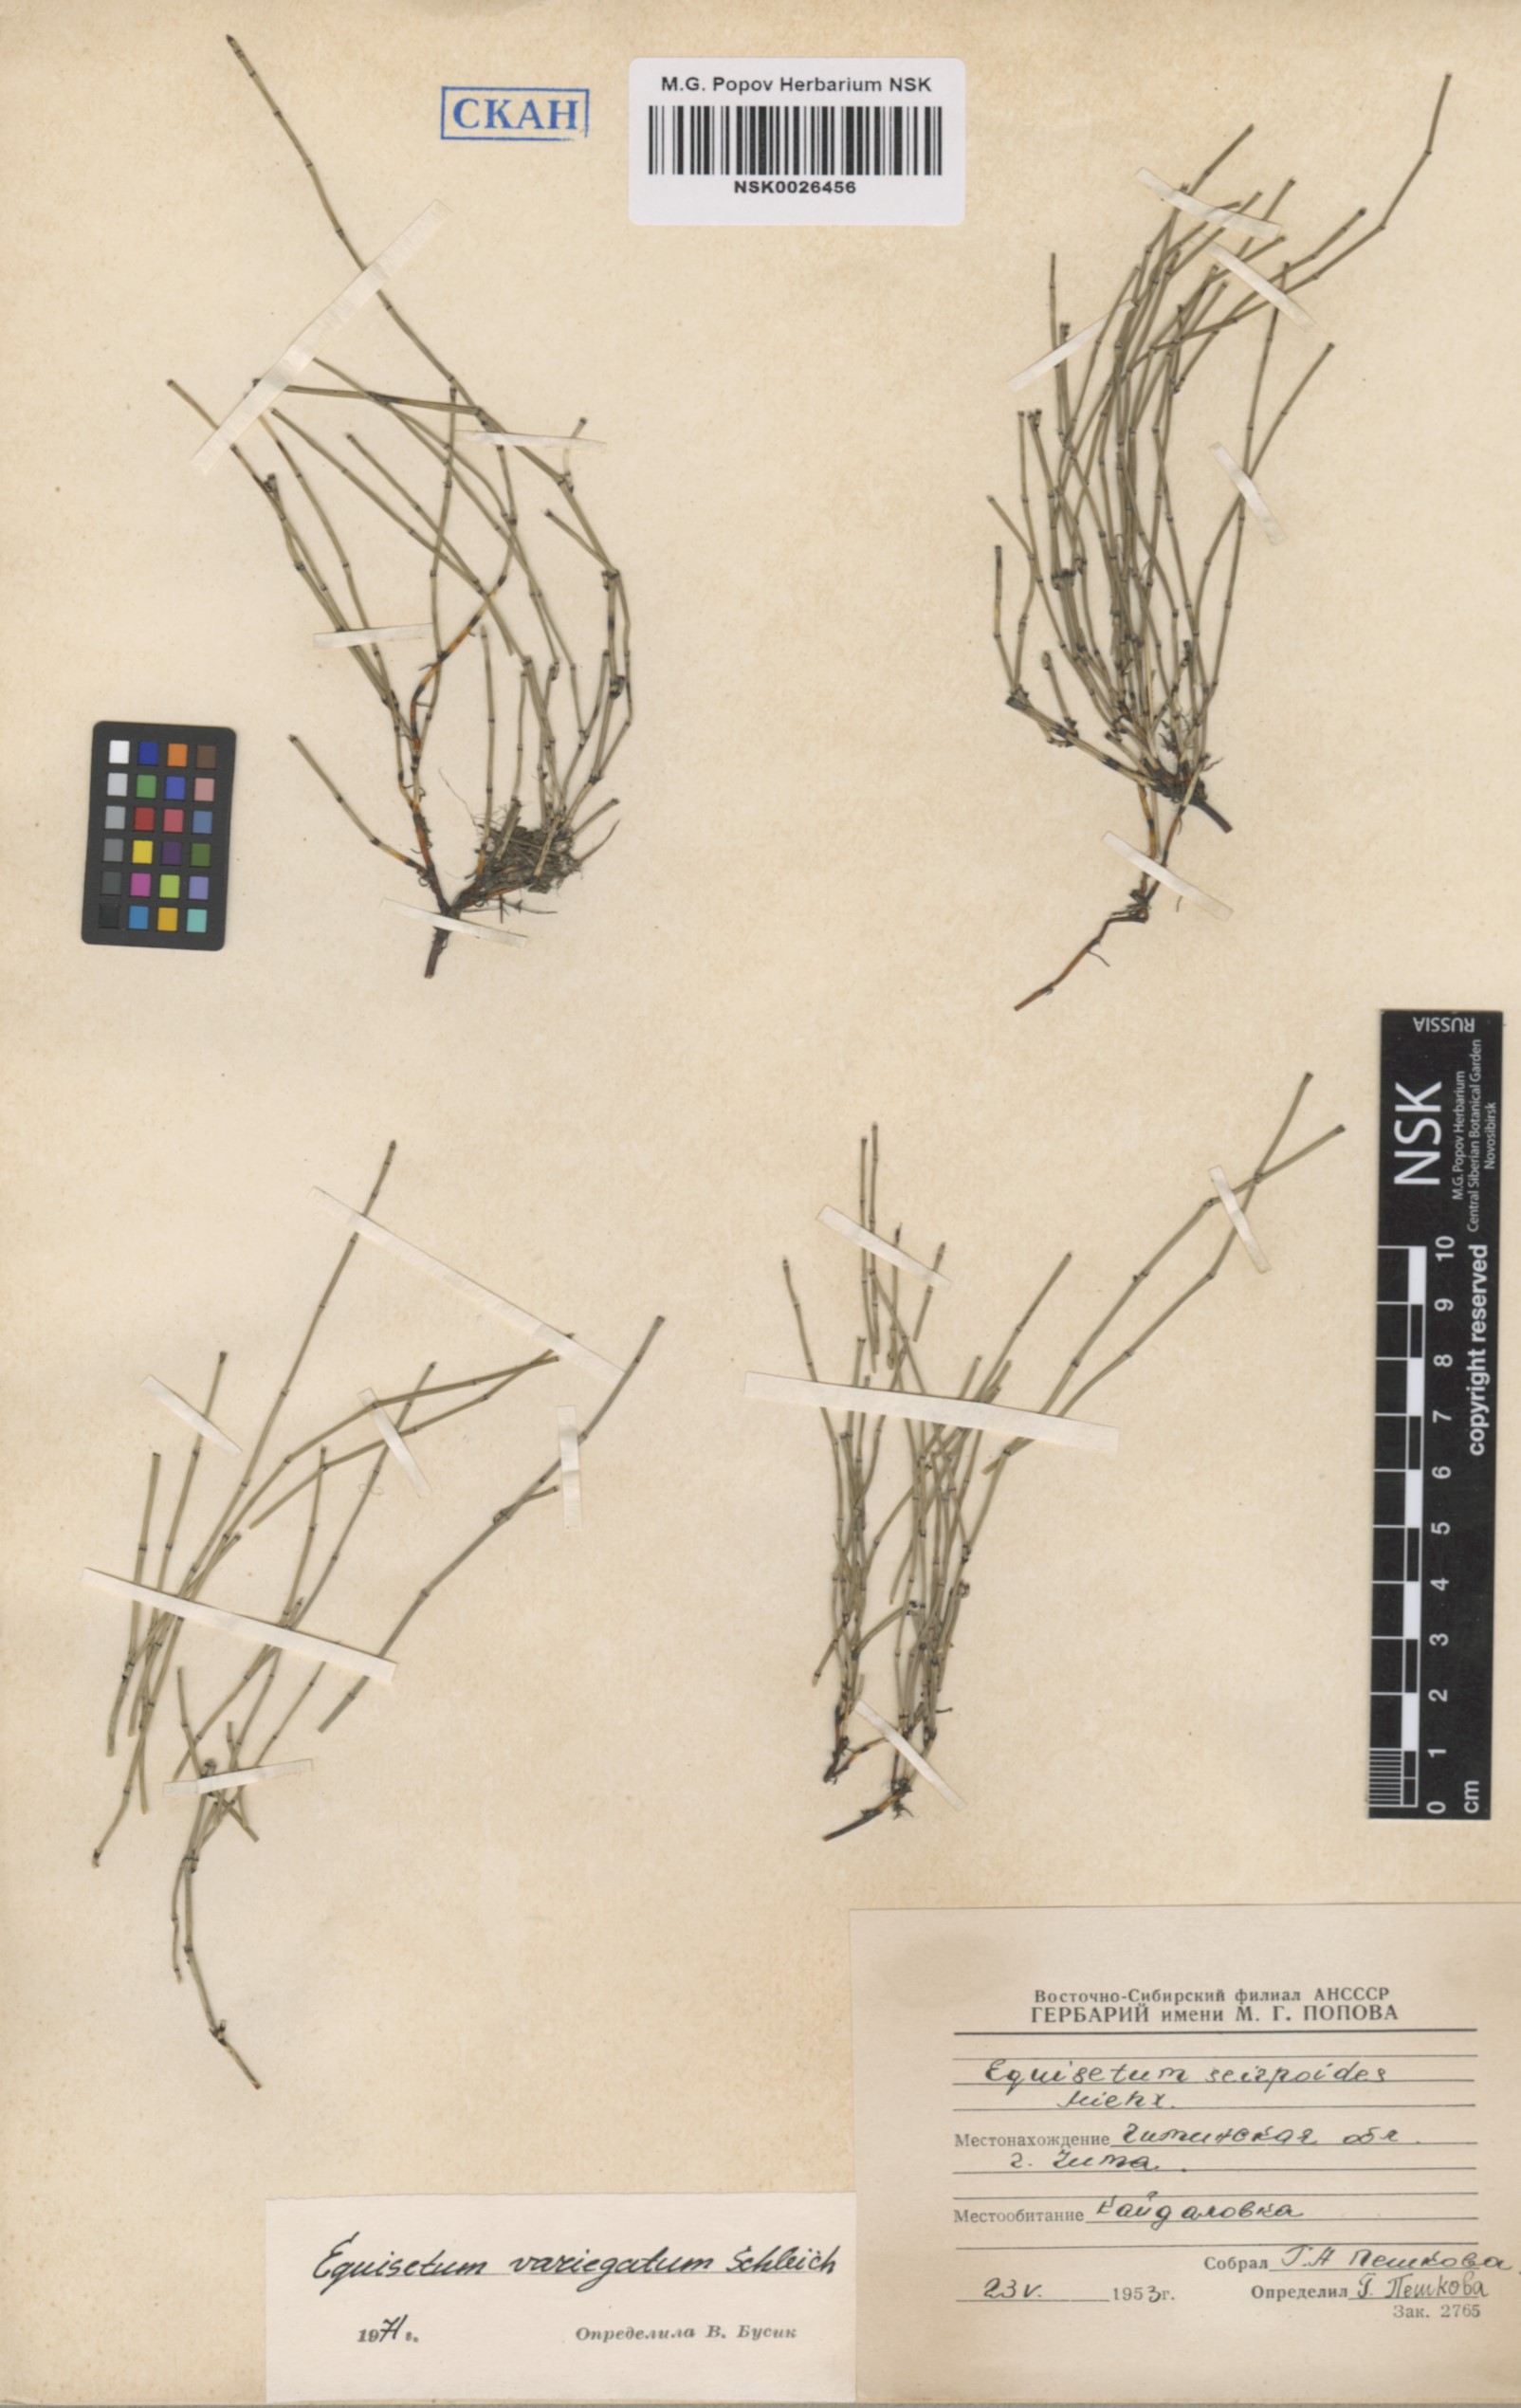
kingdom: Plantae
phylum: Tracheophyta
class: Polypodiopsida
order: Equisetales
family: Equisetaceae
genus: Equisetum
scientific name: Equisetum variegatum
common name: Variegated horsetail
